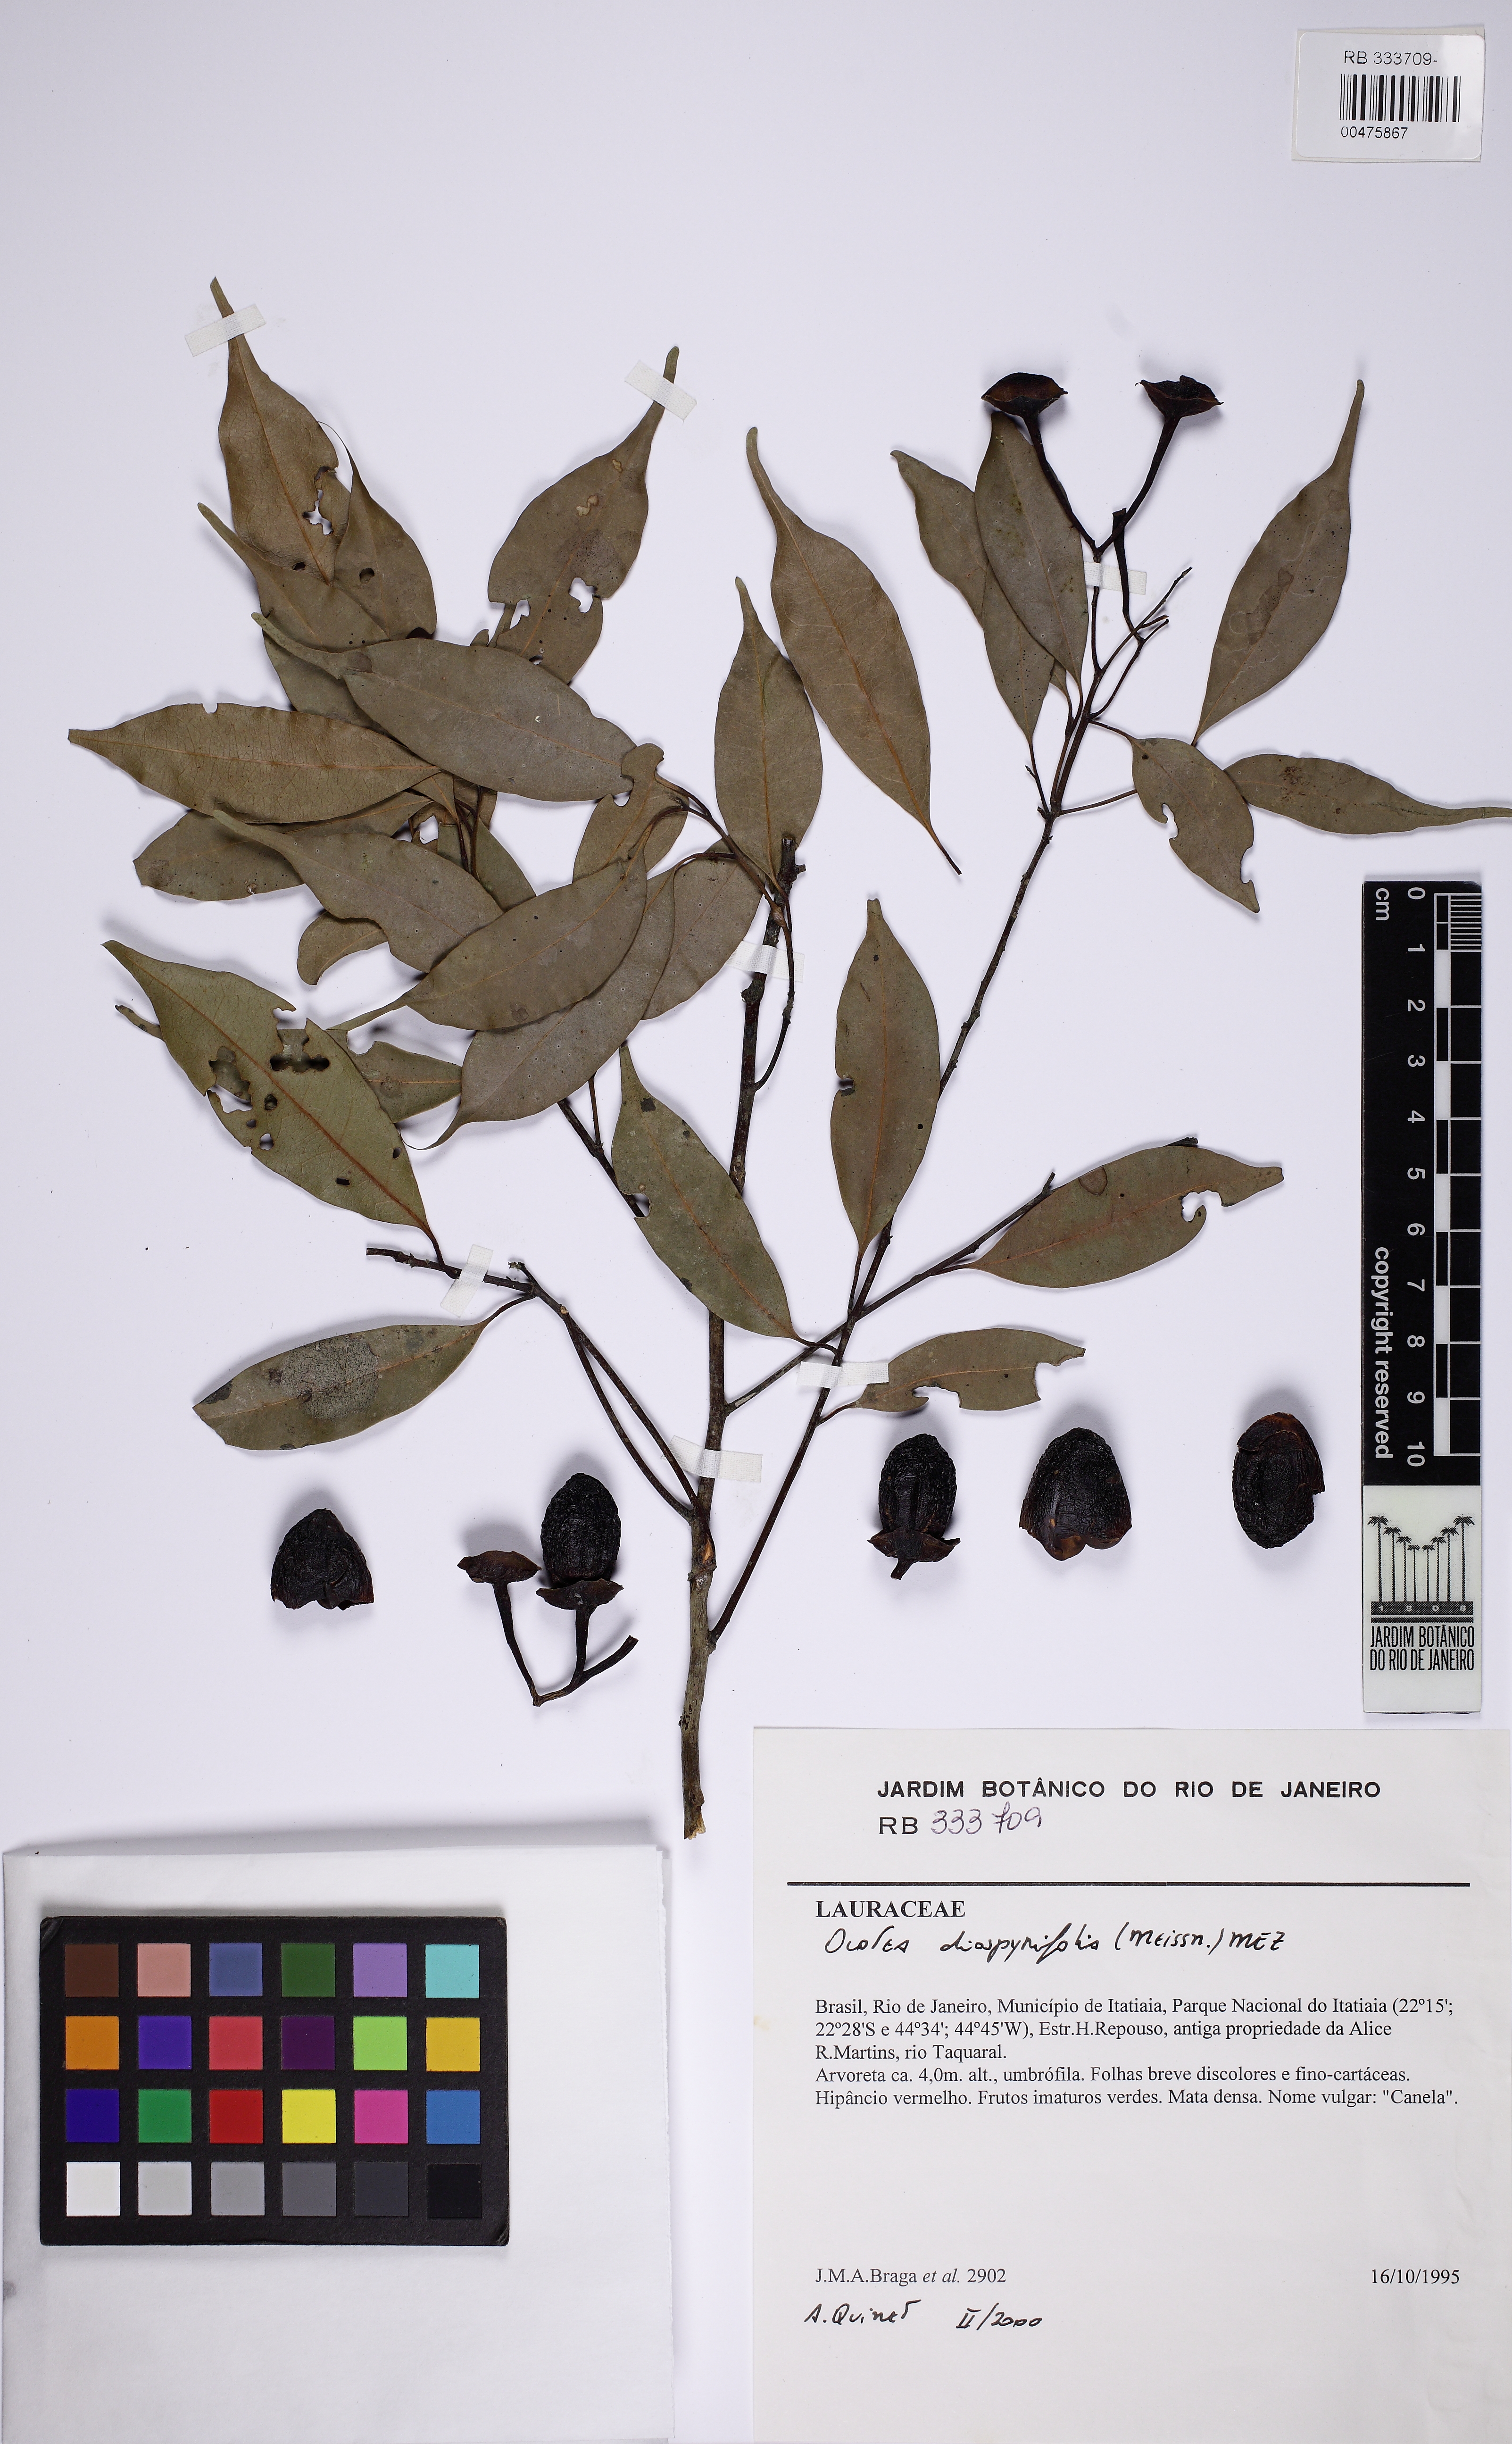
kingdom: Plantae
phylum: Tracheophyta
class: Magnoliopsida
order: Laurales
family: Lauraceae
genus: Ocotea
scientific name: Ocotea diospyrifolia
